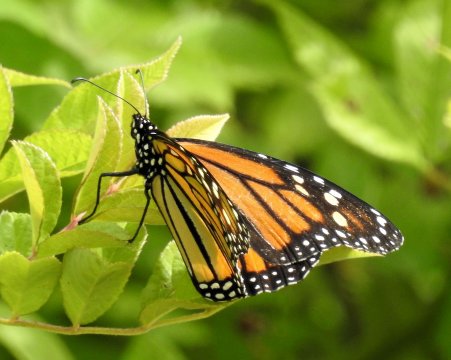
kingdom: Animalia
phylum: Arthropoda
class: Insecta
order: Lepidoptera
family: Nymphalidae
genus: Danaus
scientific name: Danaus plexippus
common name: Monarch
